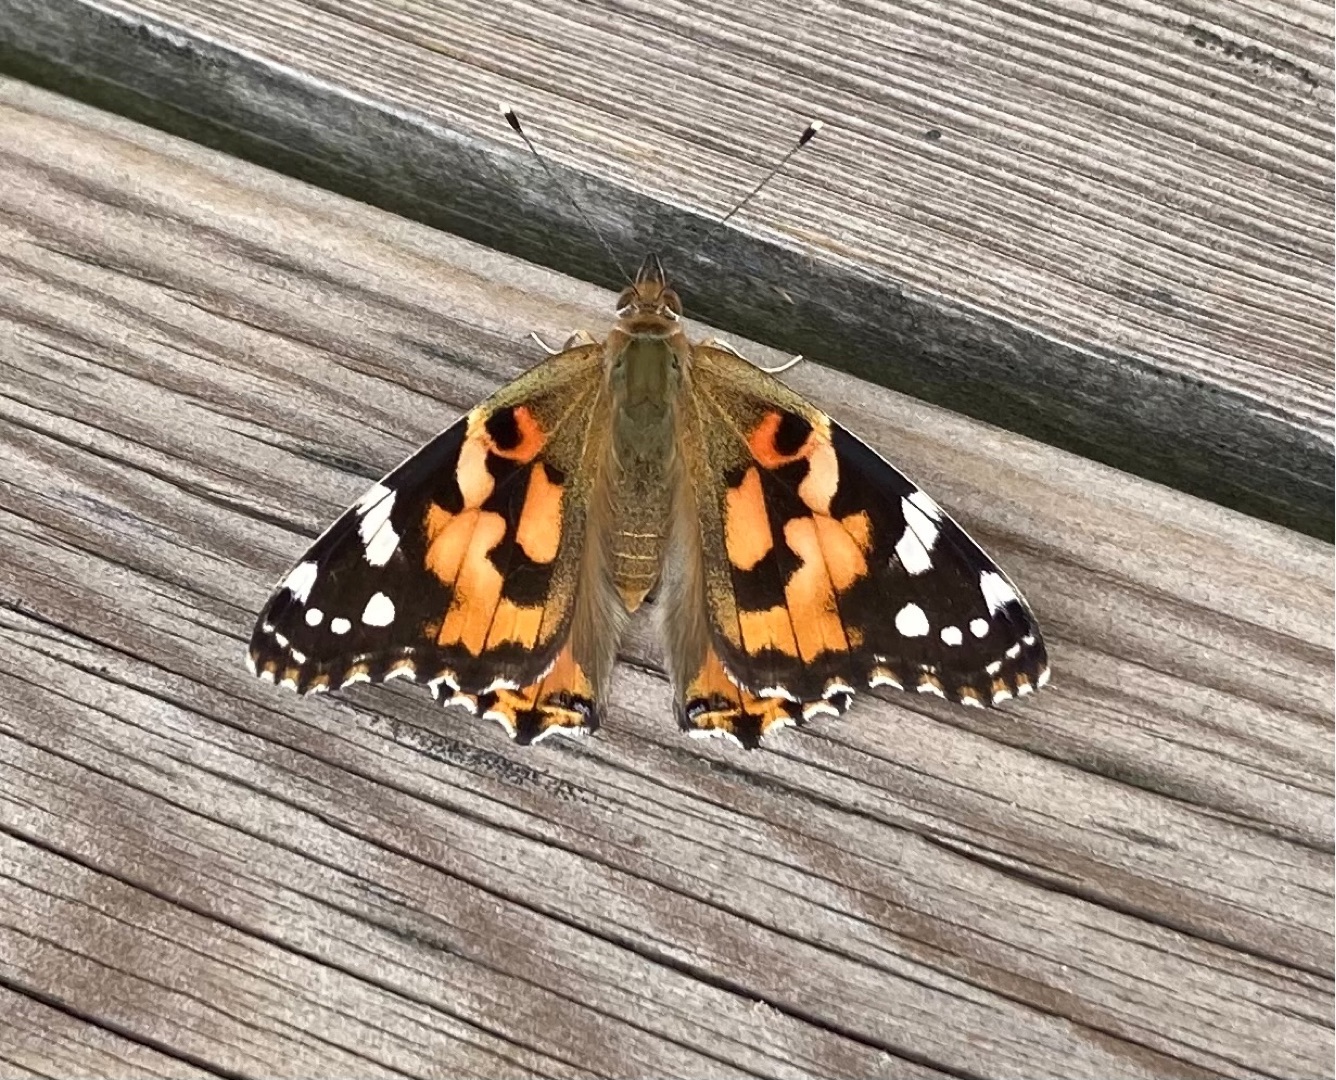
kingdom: Animalia
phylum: Arthropoda
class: Insecta
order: Lepidoptera
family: Nymphalidae
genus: Vanessa
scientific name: Vanessa cardui
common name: Tidselsommerfugl
